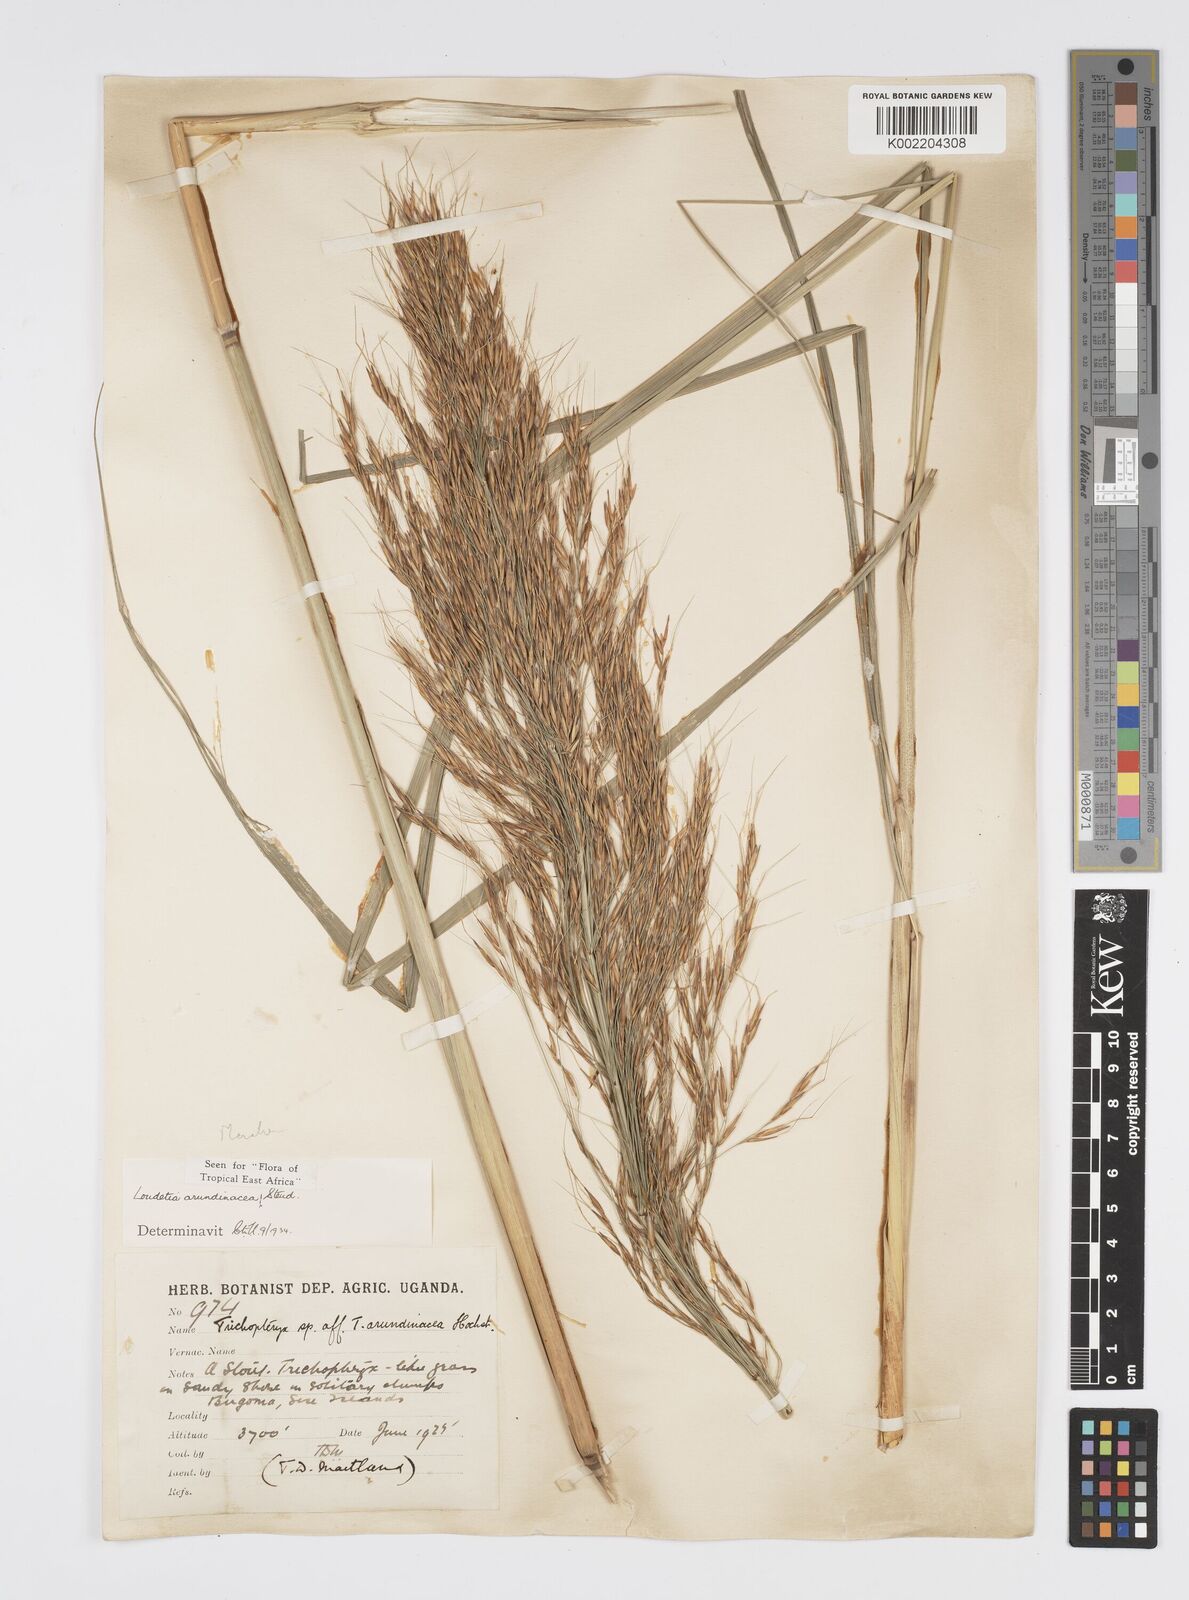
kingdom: Plantae
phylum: Tracheophyta
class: Liliopsida
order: Poales
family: Poaceae
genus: Loudetia
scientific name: Loudetia arundinacea
